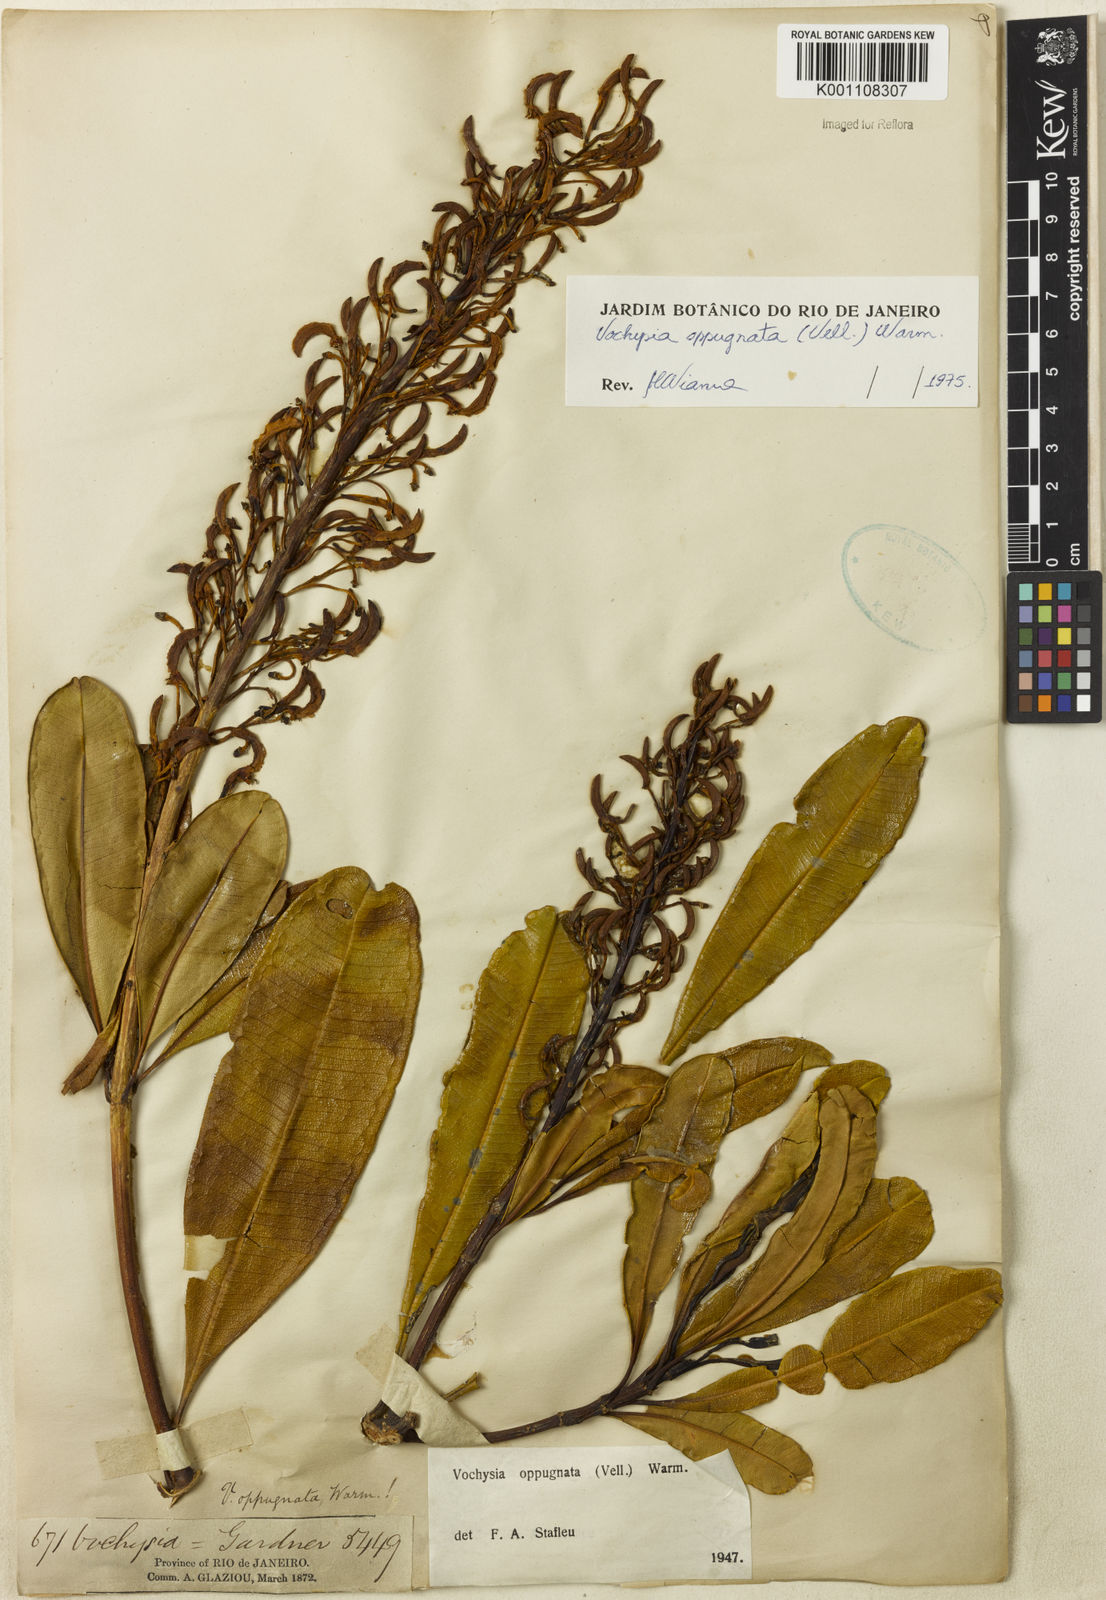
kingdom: Plantae
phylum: Tracheophyta
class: Magnoliopsida
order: Myrtales
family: Vochysiaceae
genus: Vochysia
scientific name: Vochysia oppugnata
